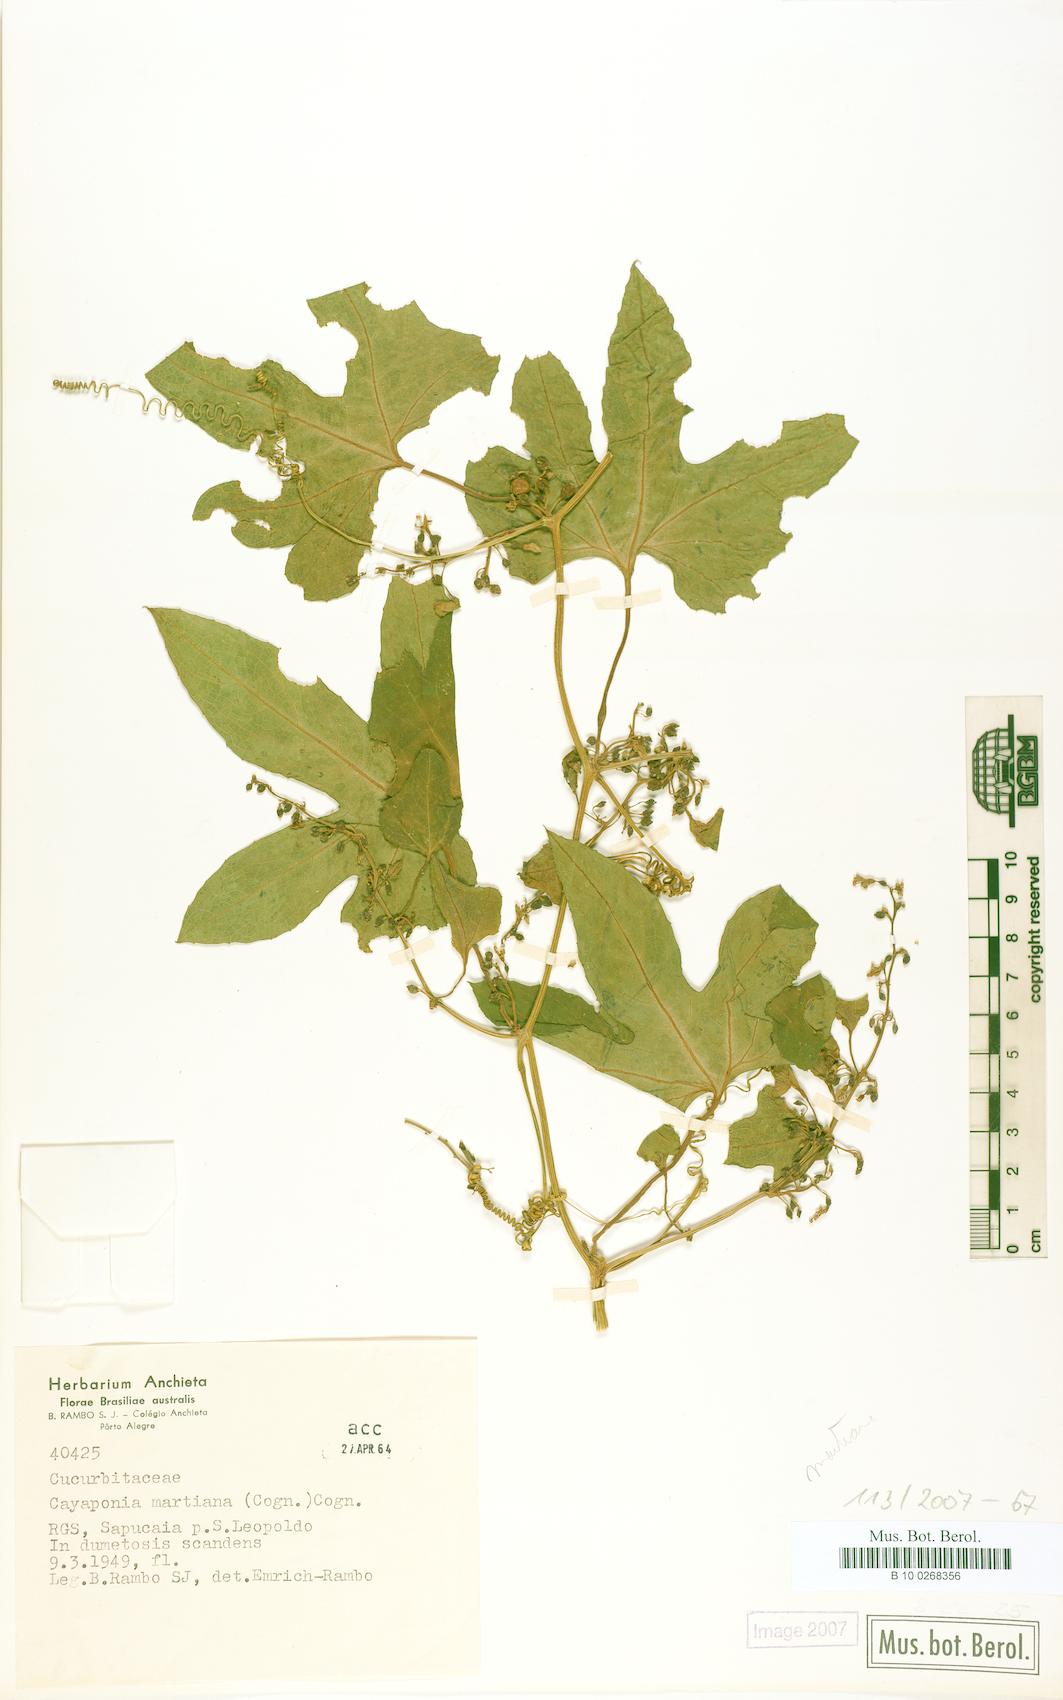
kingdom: Plantae
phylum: Tracheophyta
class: Magnoliopsida
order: Cucurbitales
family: Cucurbitaceae
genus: Cayaponia
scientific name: Cayaponia martiana
